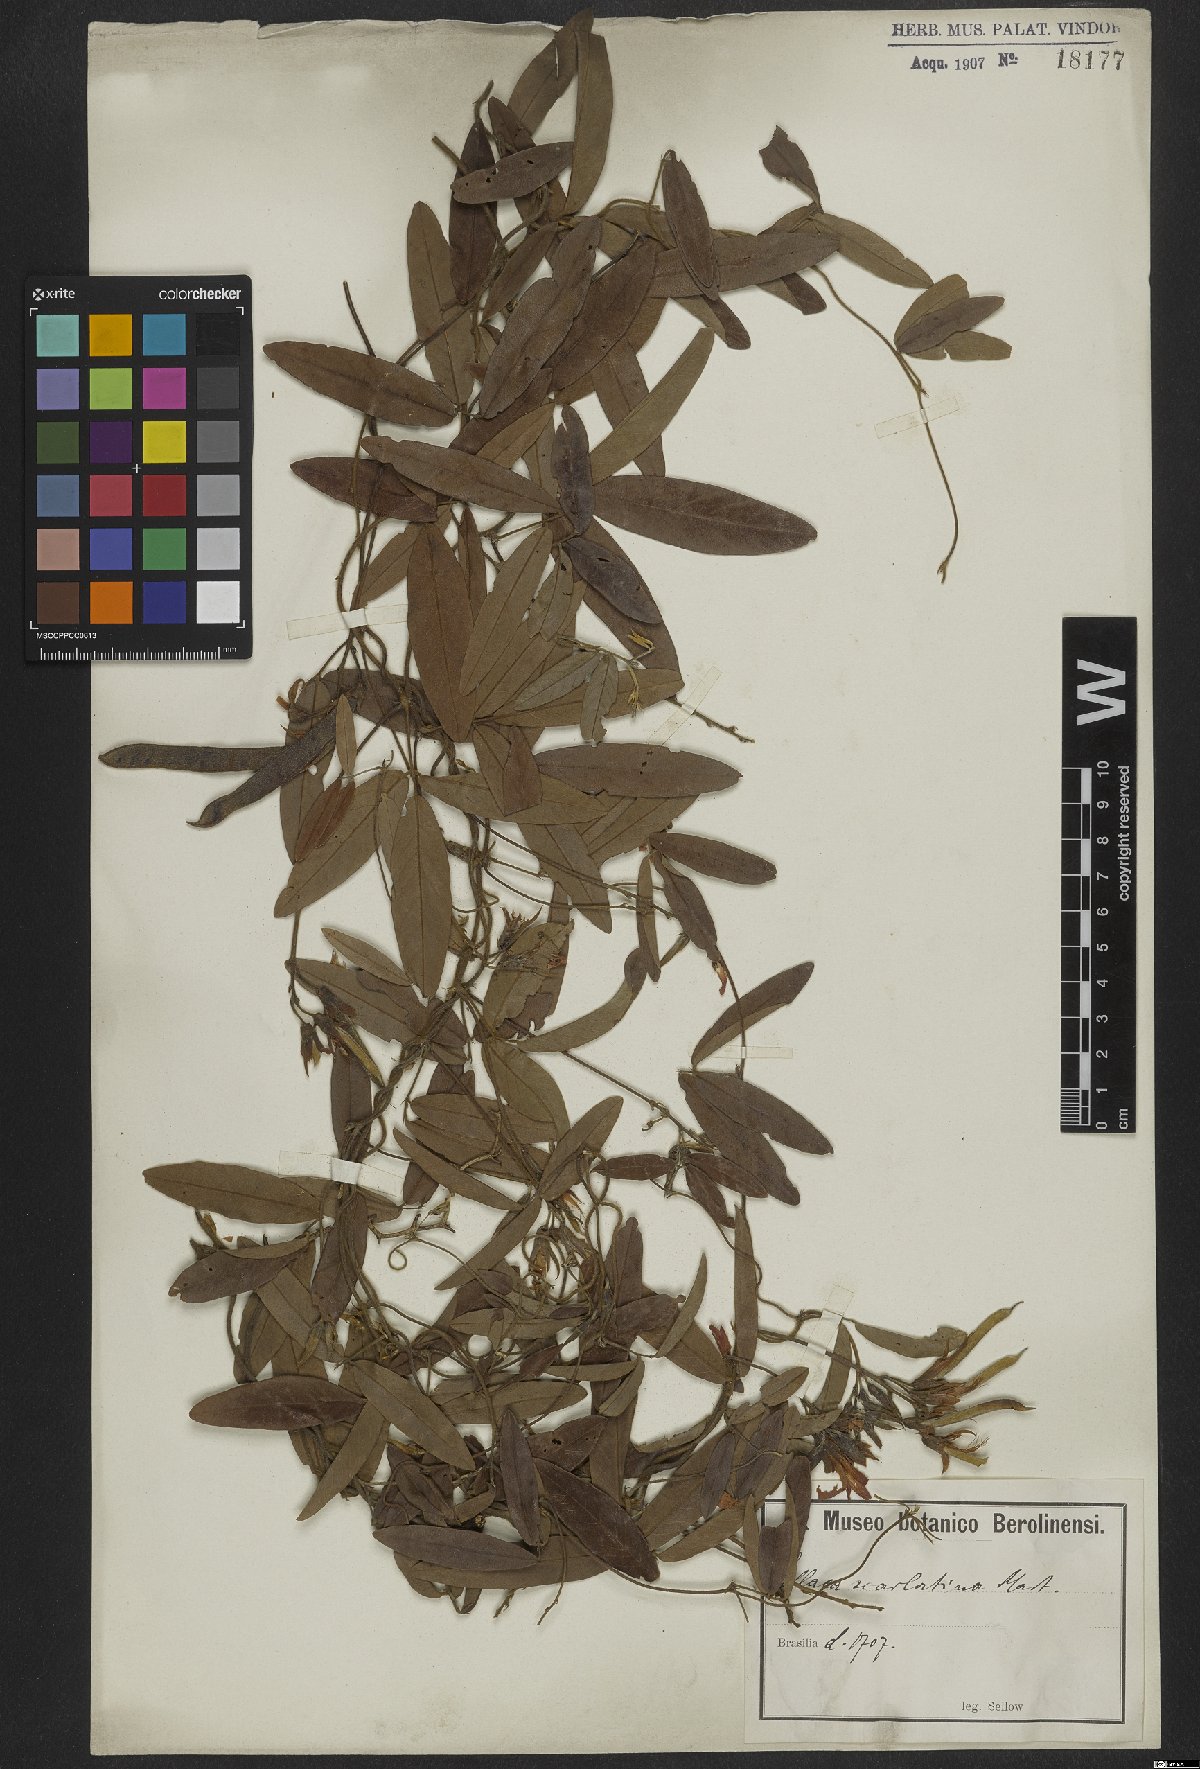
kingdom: Plantae
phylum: Tracheophyta
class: Magnoliopsida
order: Fabales
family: Fabaceae
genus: Betencourtia
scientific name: Betencourtia scarlatina
